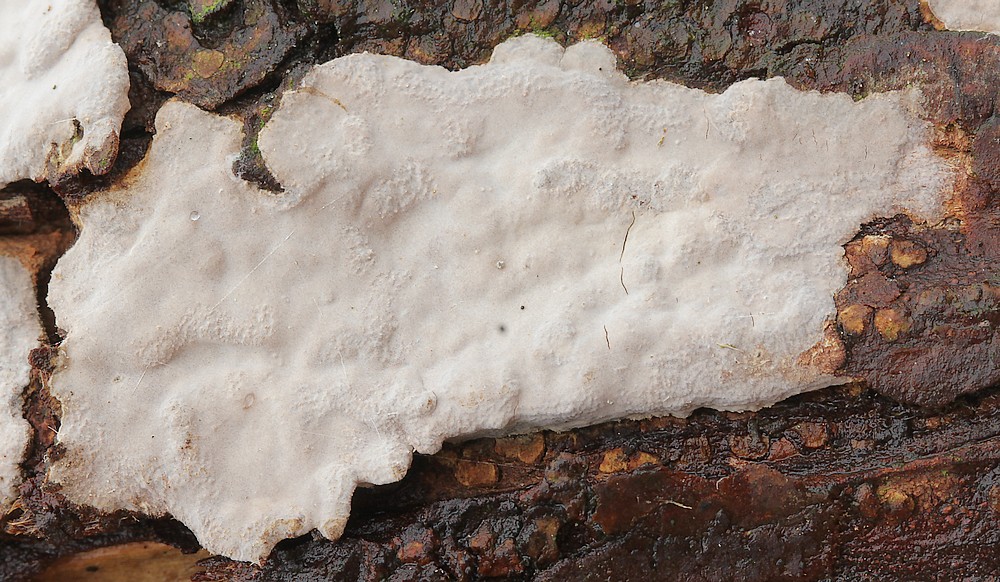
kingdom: Fungi
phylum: Basidiomycota
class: Agaricomycetes
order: Russulales
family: Echinodontiaceae
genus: Amylostereum
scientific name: Amylostereum laevigatum
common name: ene-lædersvamp
